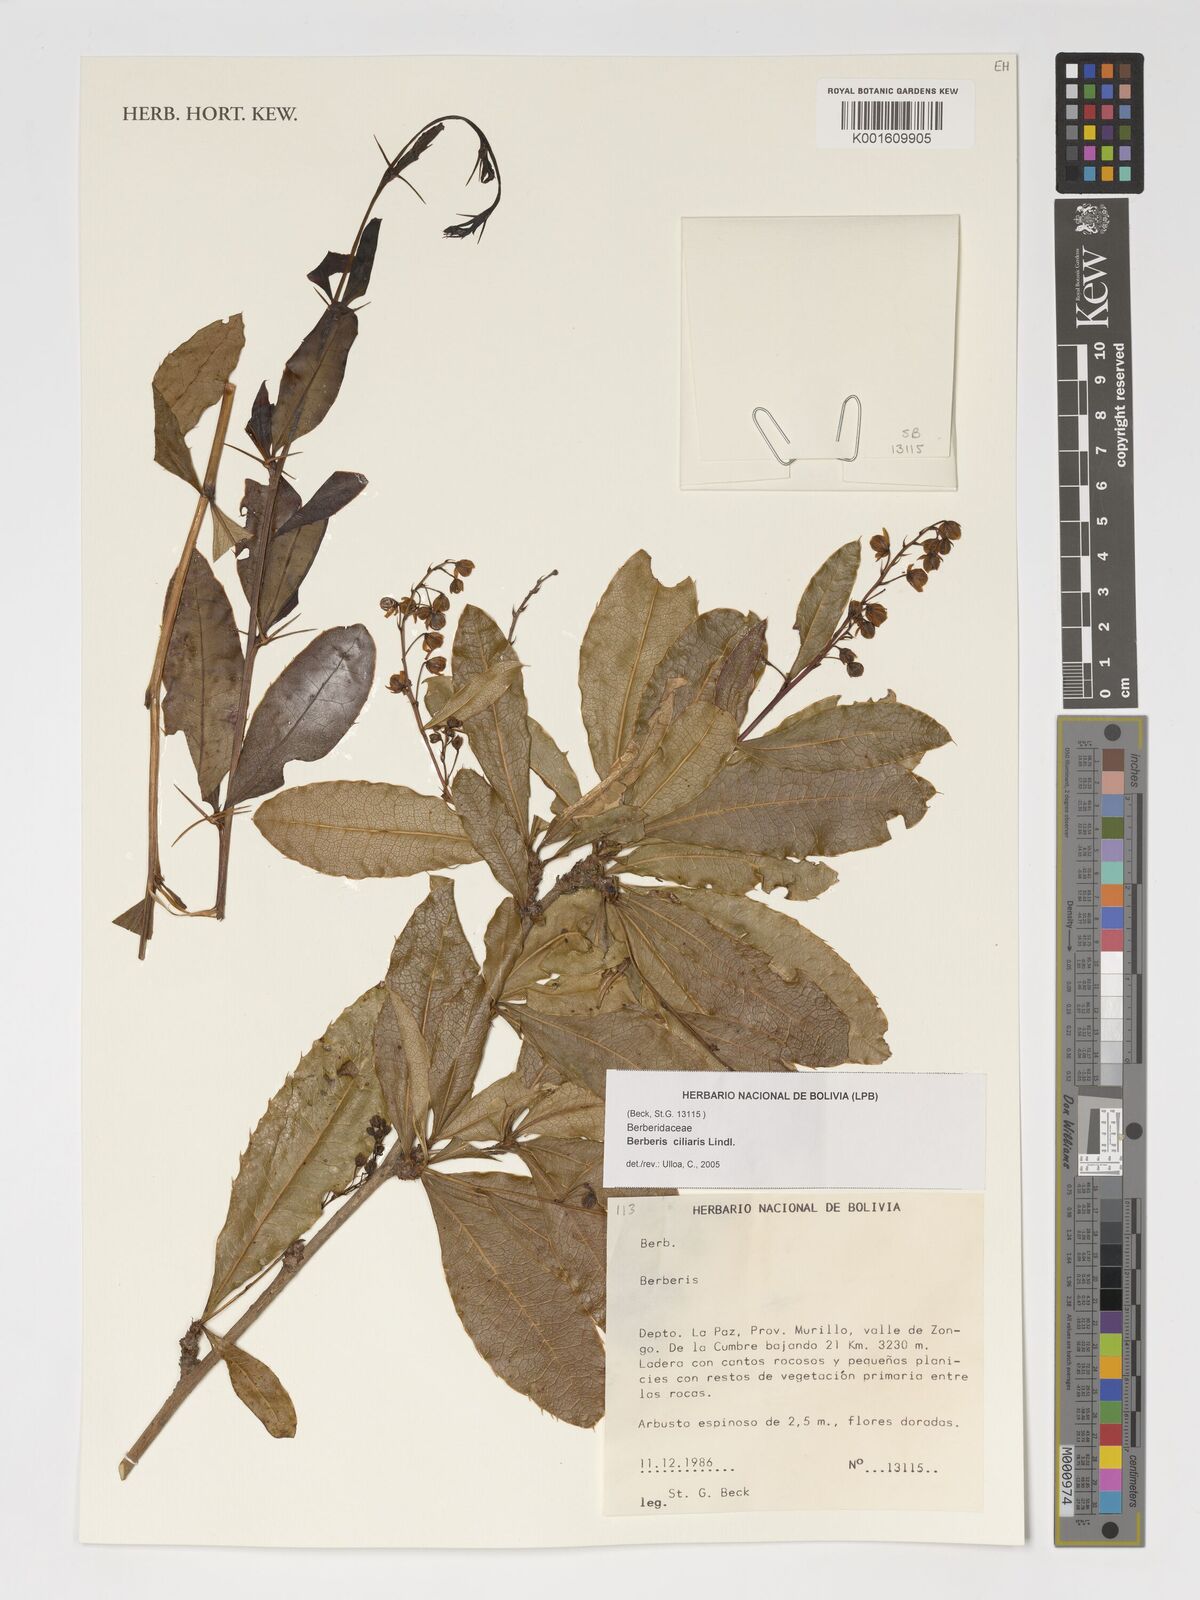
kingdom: Plantae
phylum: Tracheophyta
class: Magnoliopsida
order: Ranunculales
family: Berberidaceae
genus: Berberis
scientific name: Berberis ciliaris
